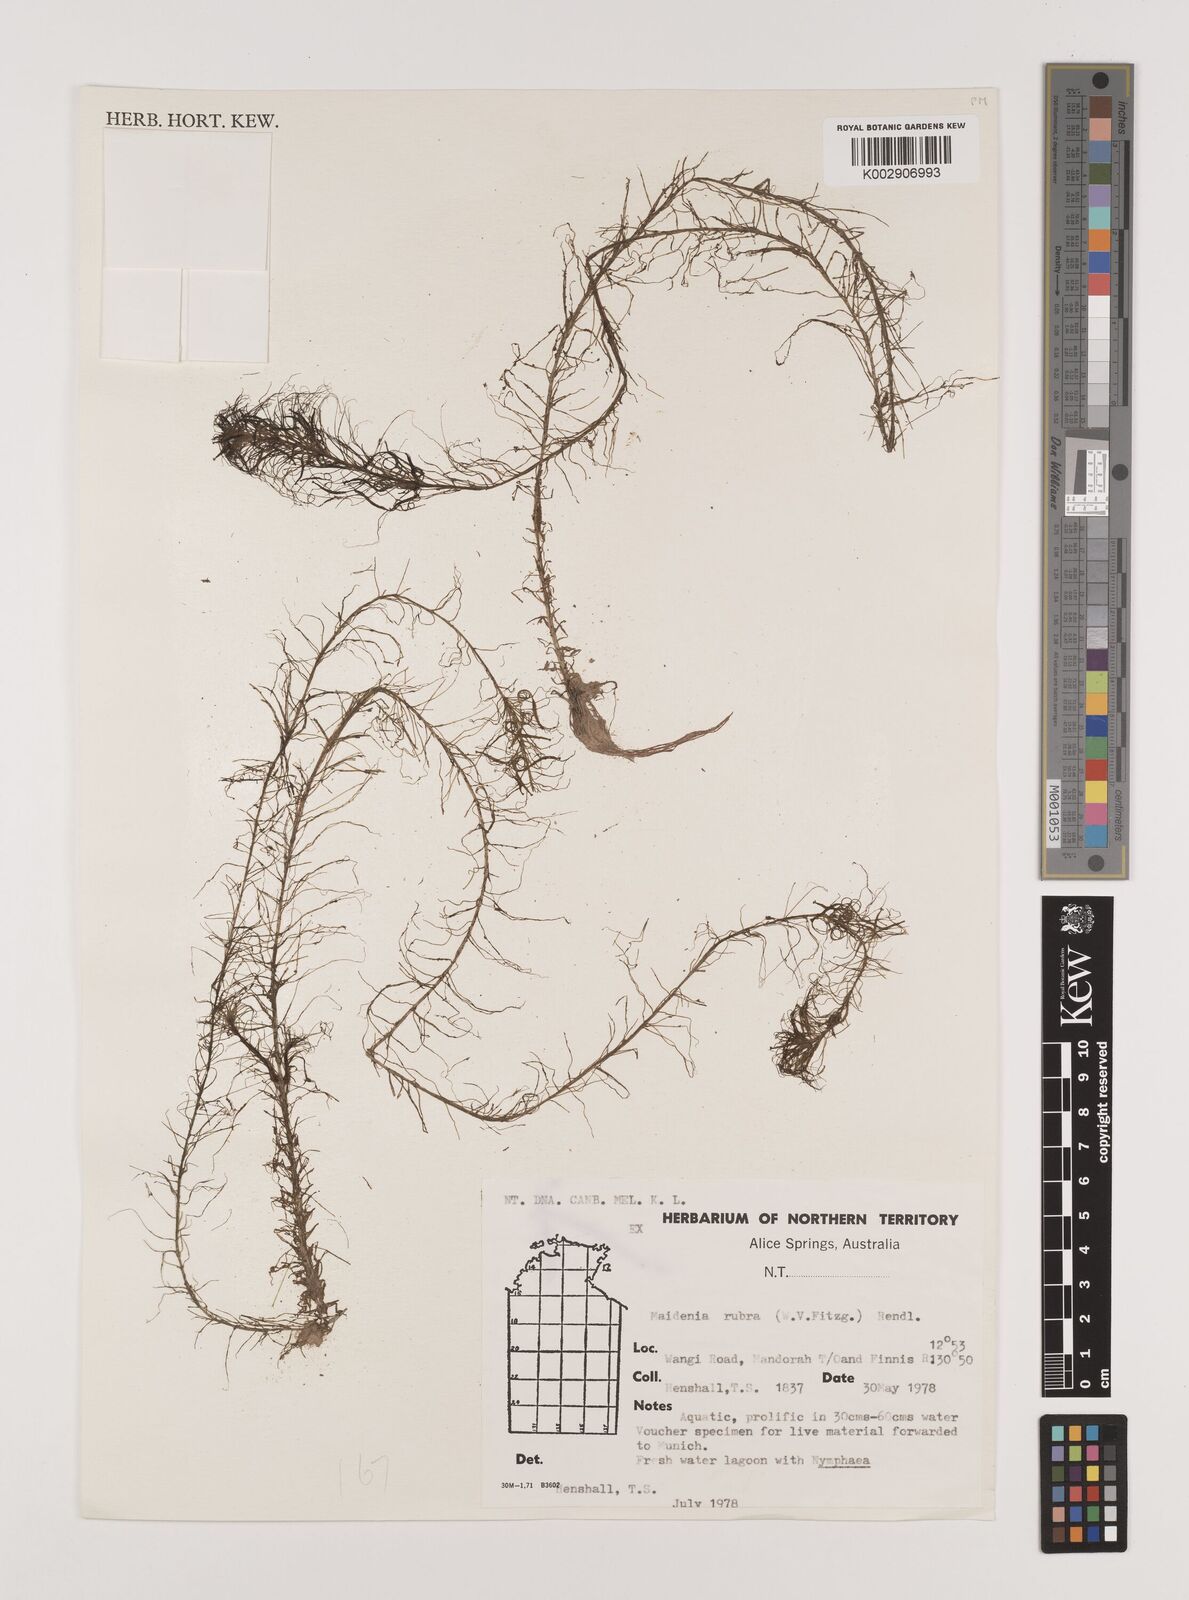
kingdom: Plantae
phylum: Tracheophyta
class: Liliopsida
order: Alismatales
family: Hydrocharitaceae
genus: Vallisneria
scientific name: Vallisneria rubra
